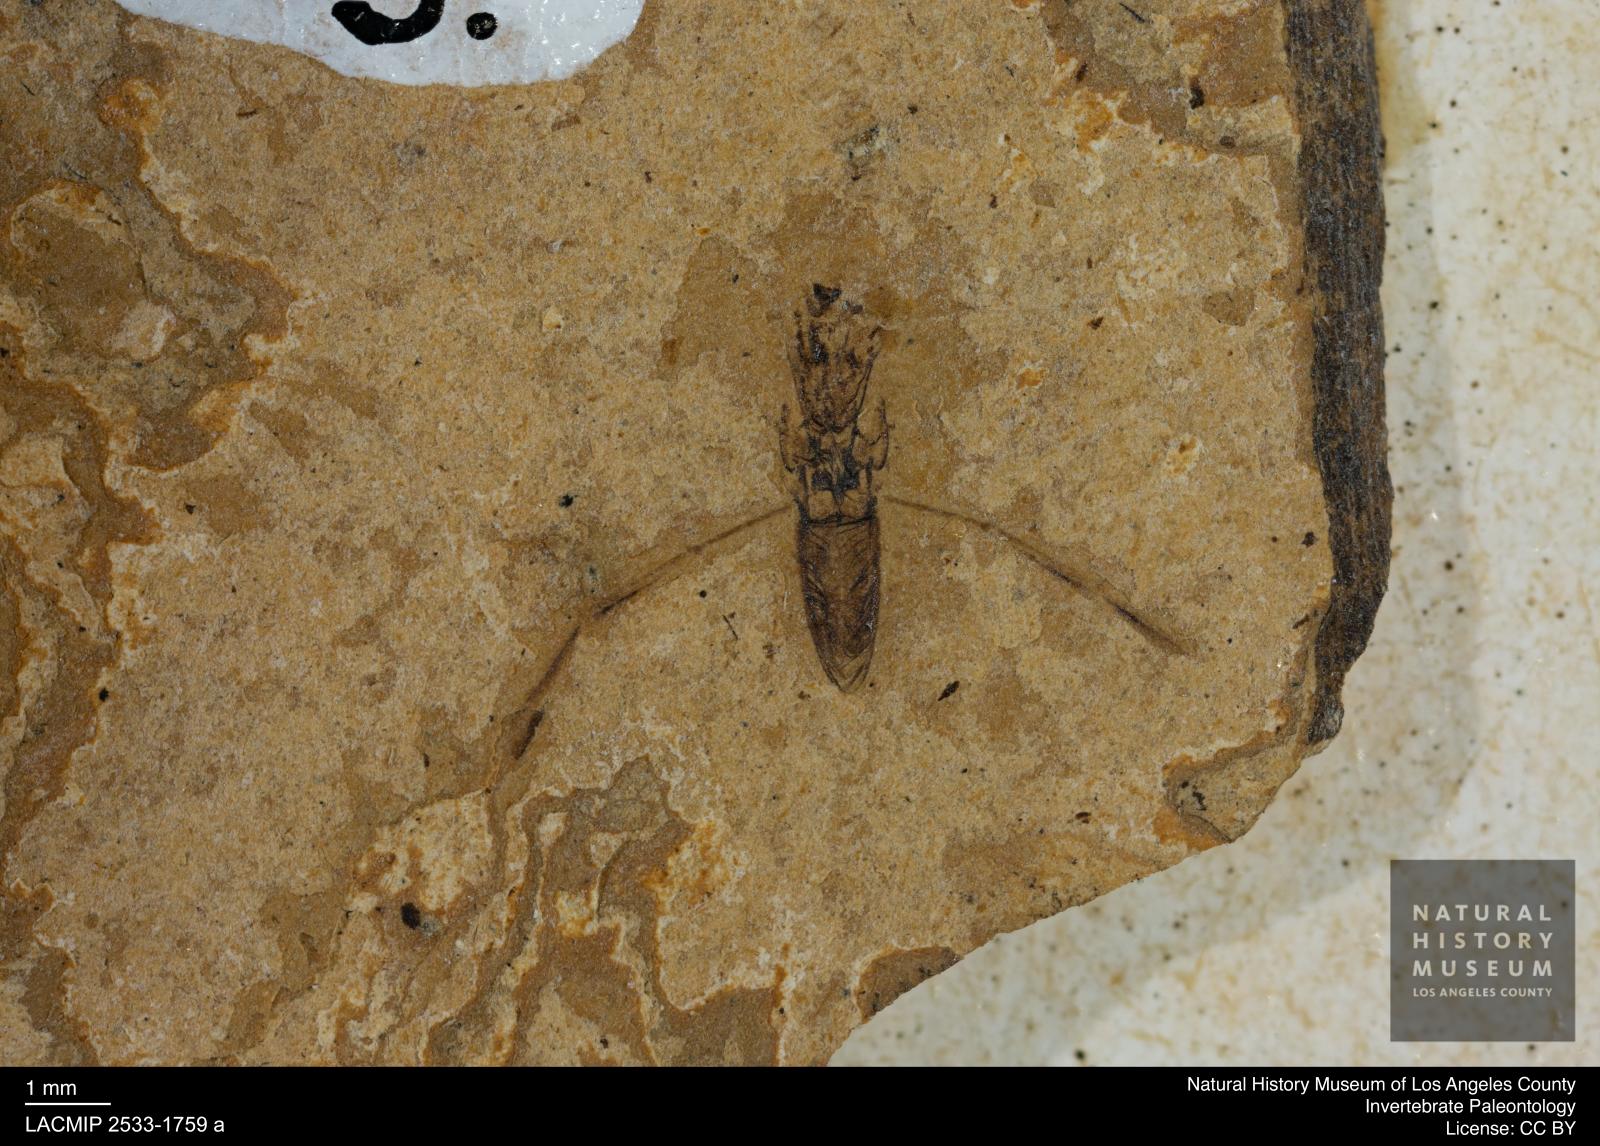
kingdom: Animalia
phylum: Arthropoda
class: Insecta
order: Hemiptera
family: Notonectidae
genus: Notonecta
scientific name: Notonecta
